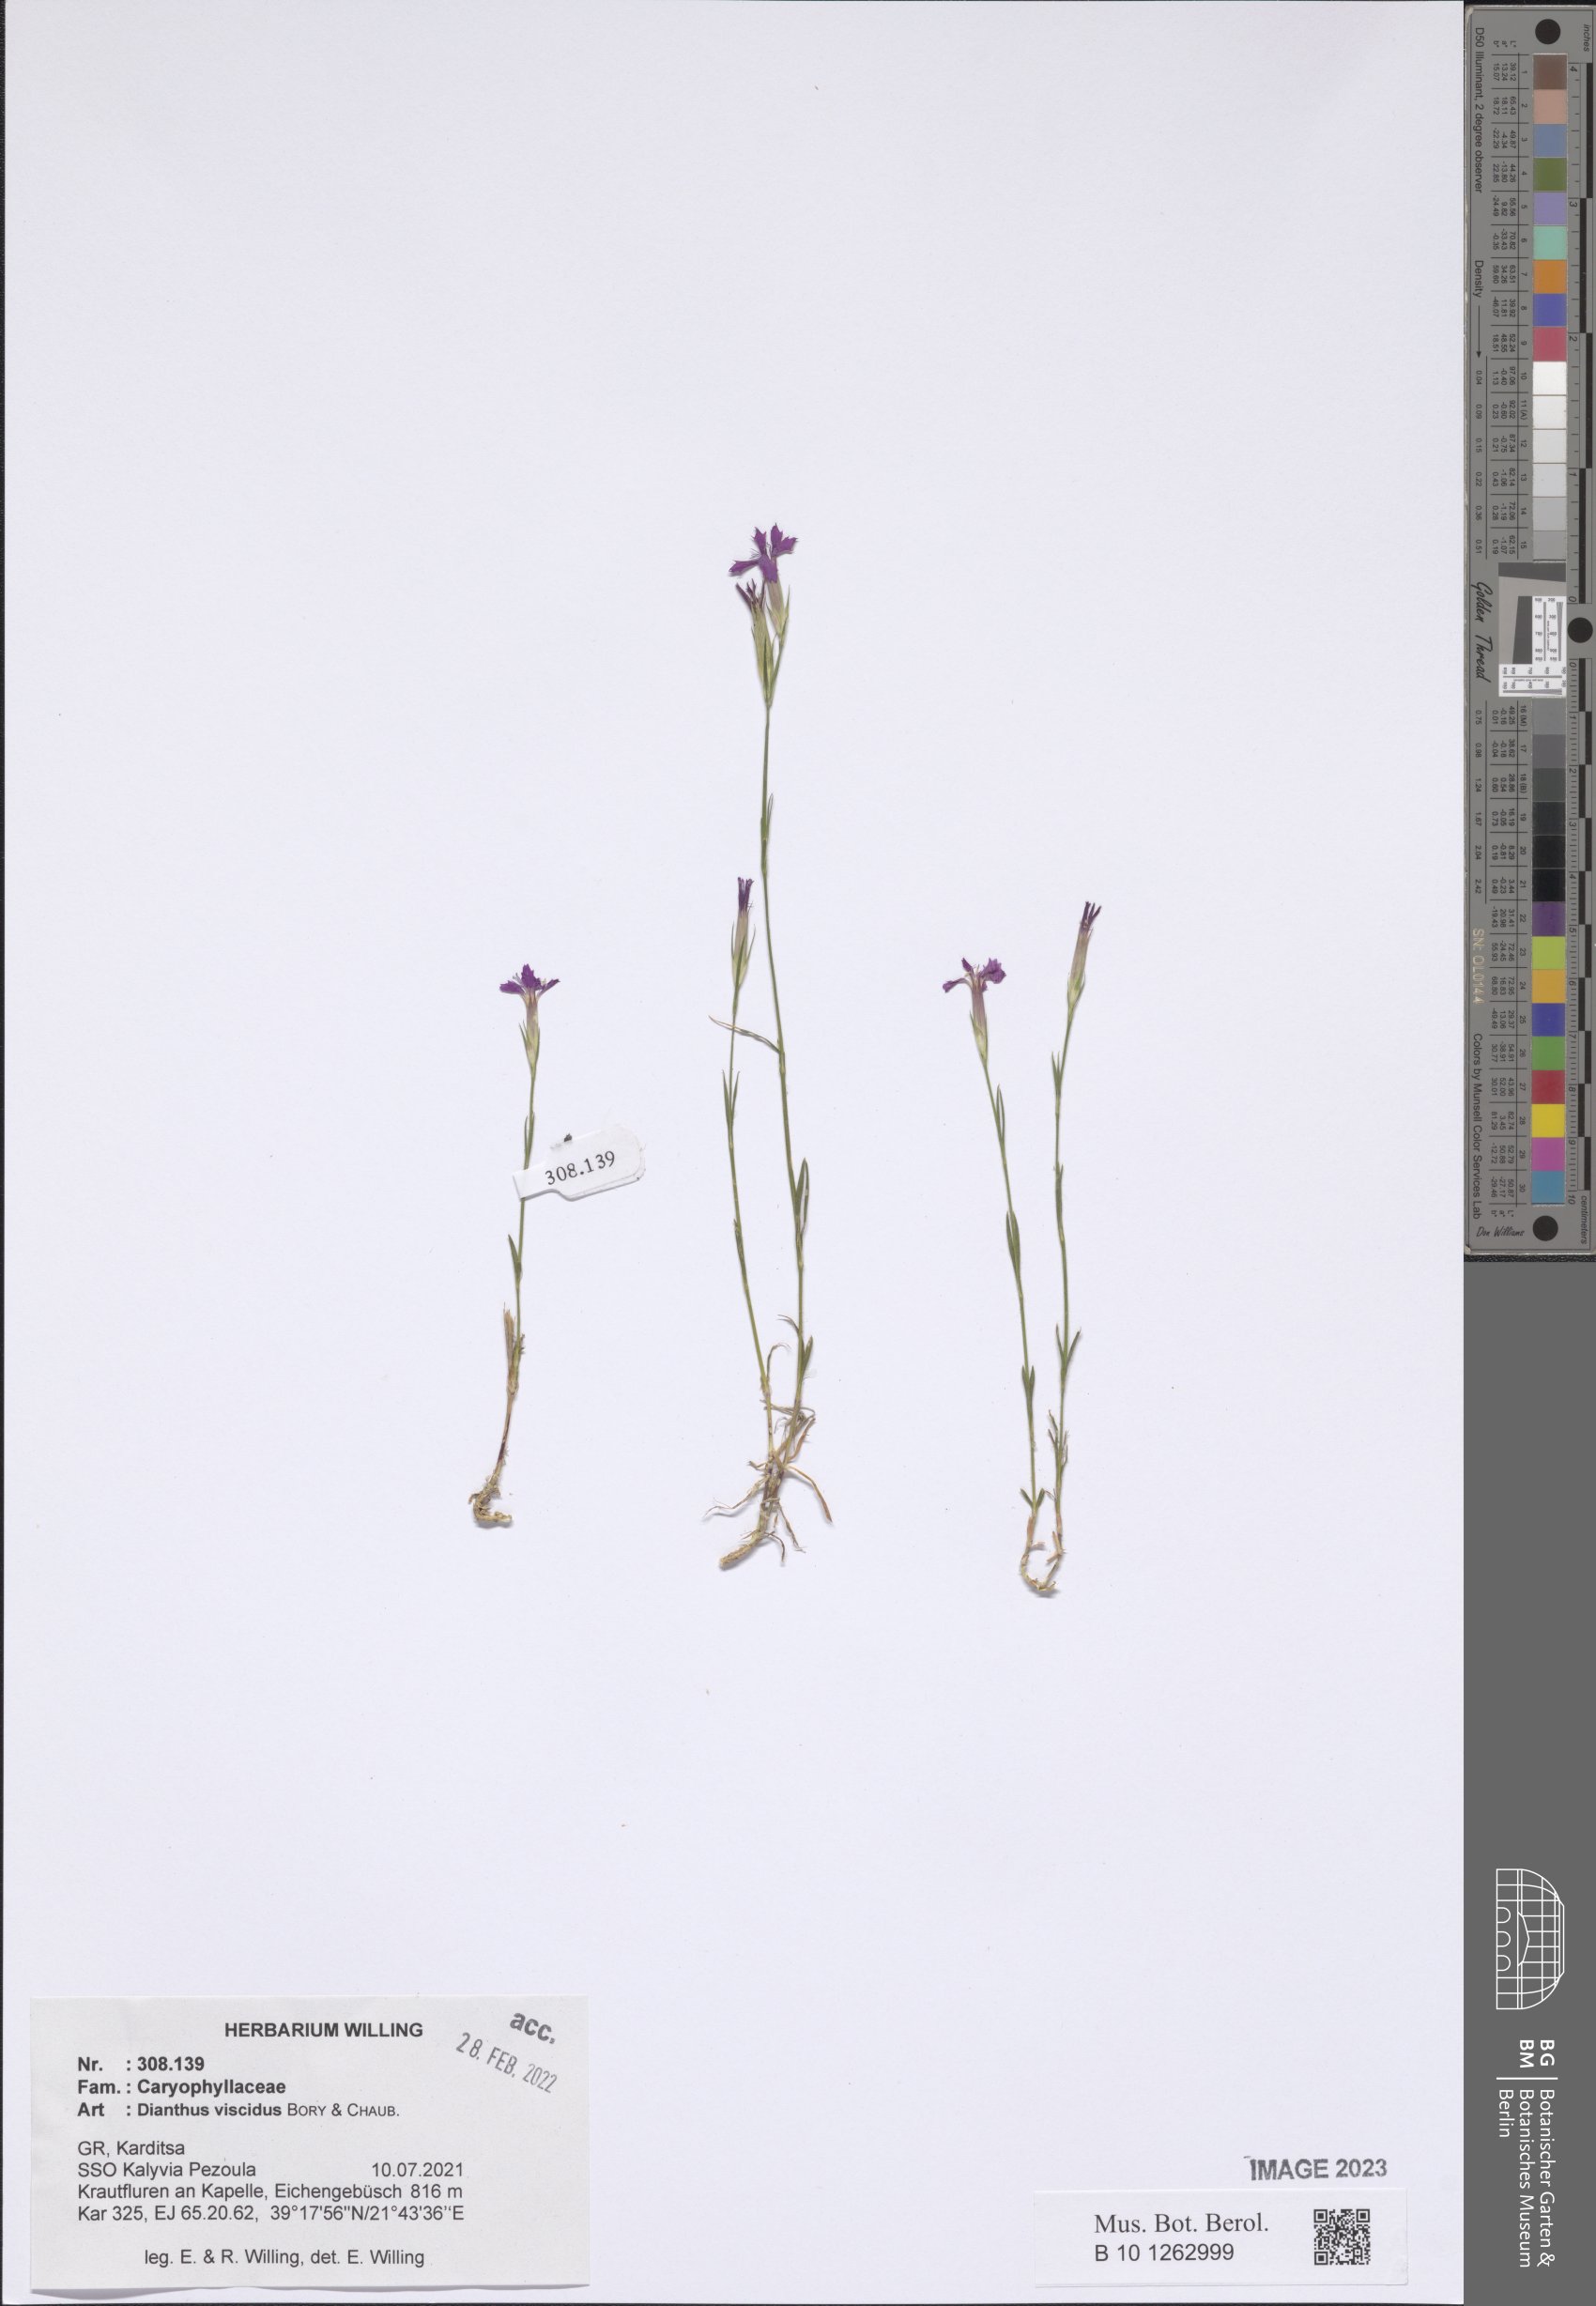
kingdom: Plantae
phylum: Tracheophyta
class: Magnoliopsida
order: Caryophyllales
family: Caryophyllaceae
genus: Dianthus
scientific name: Dianthus viscidus
